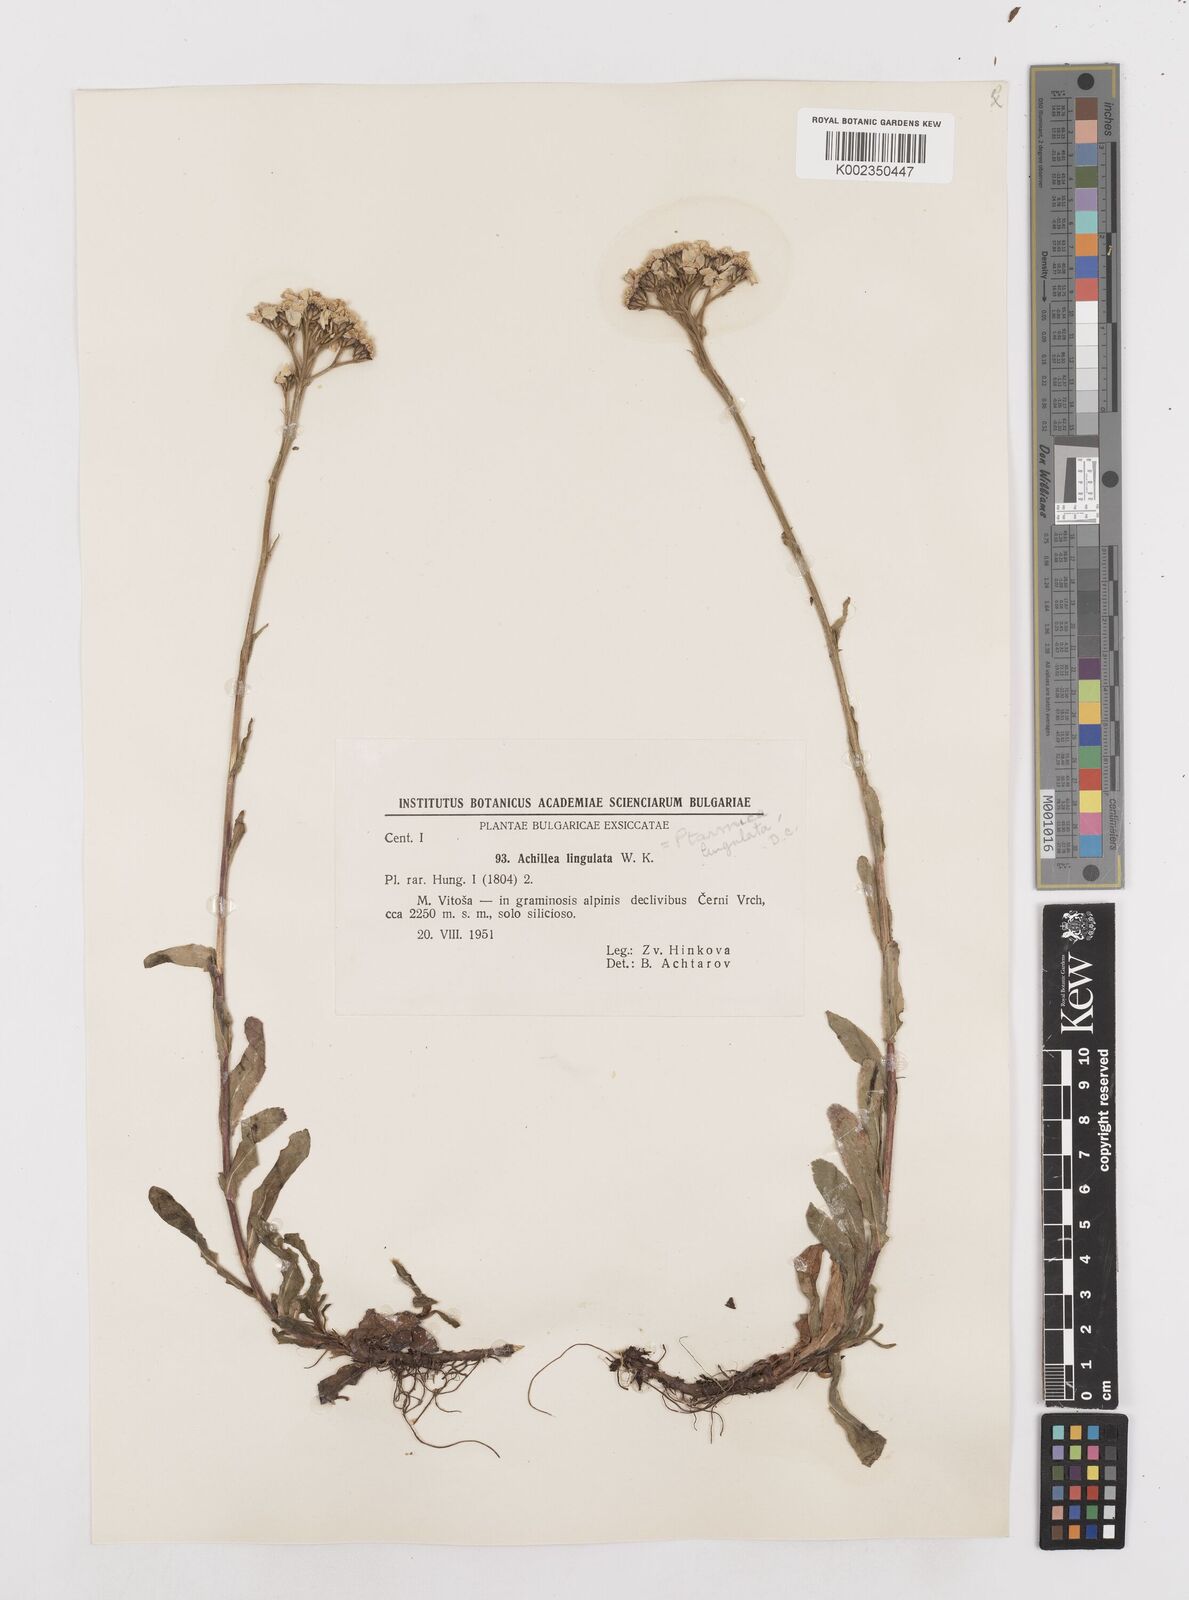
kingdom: Plantae
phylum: Tracheophyta
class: Magnoliopsida
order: Asterales
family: Asteraceae
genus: Achillea
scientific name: Achillea lingulata
